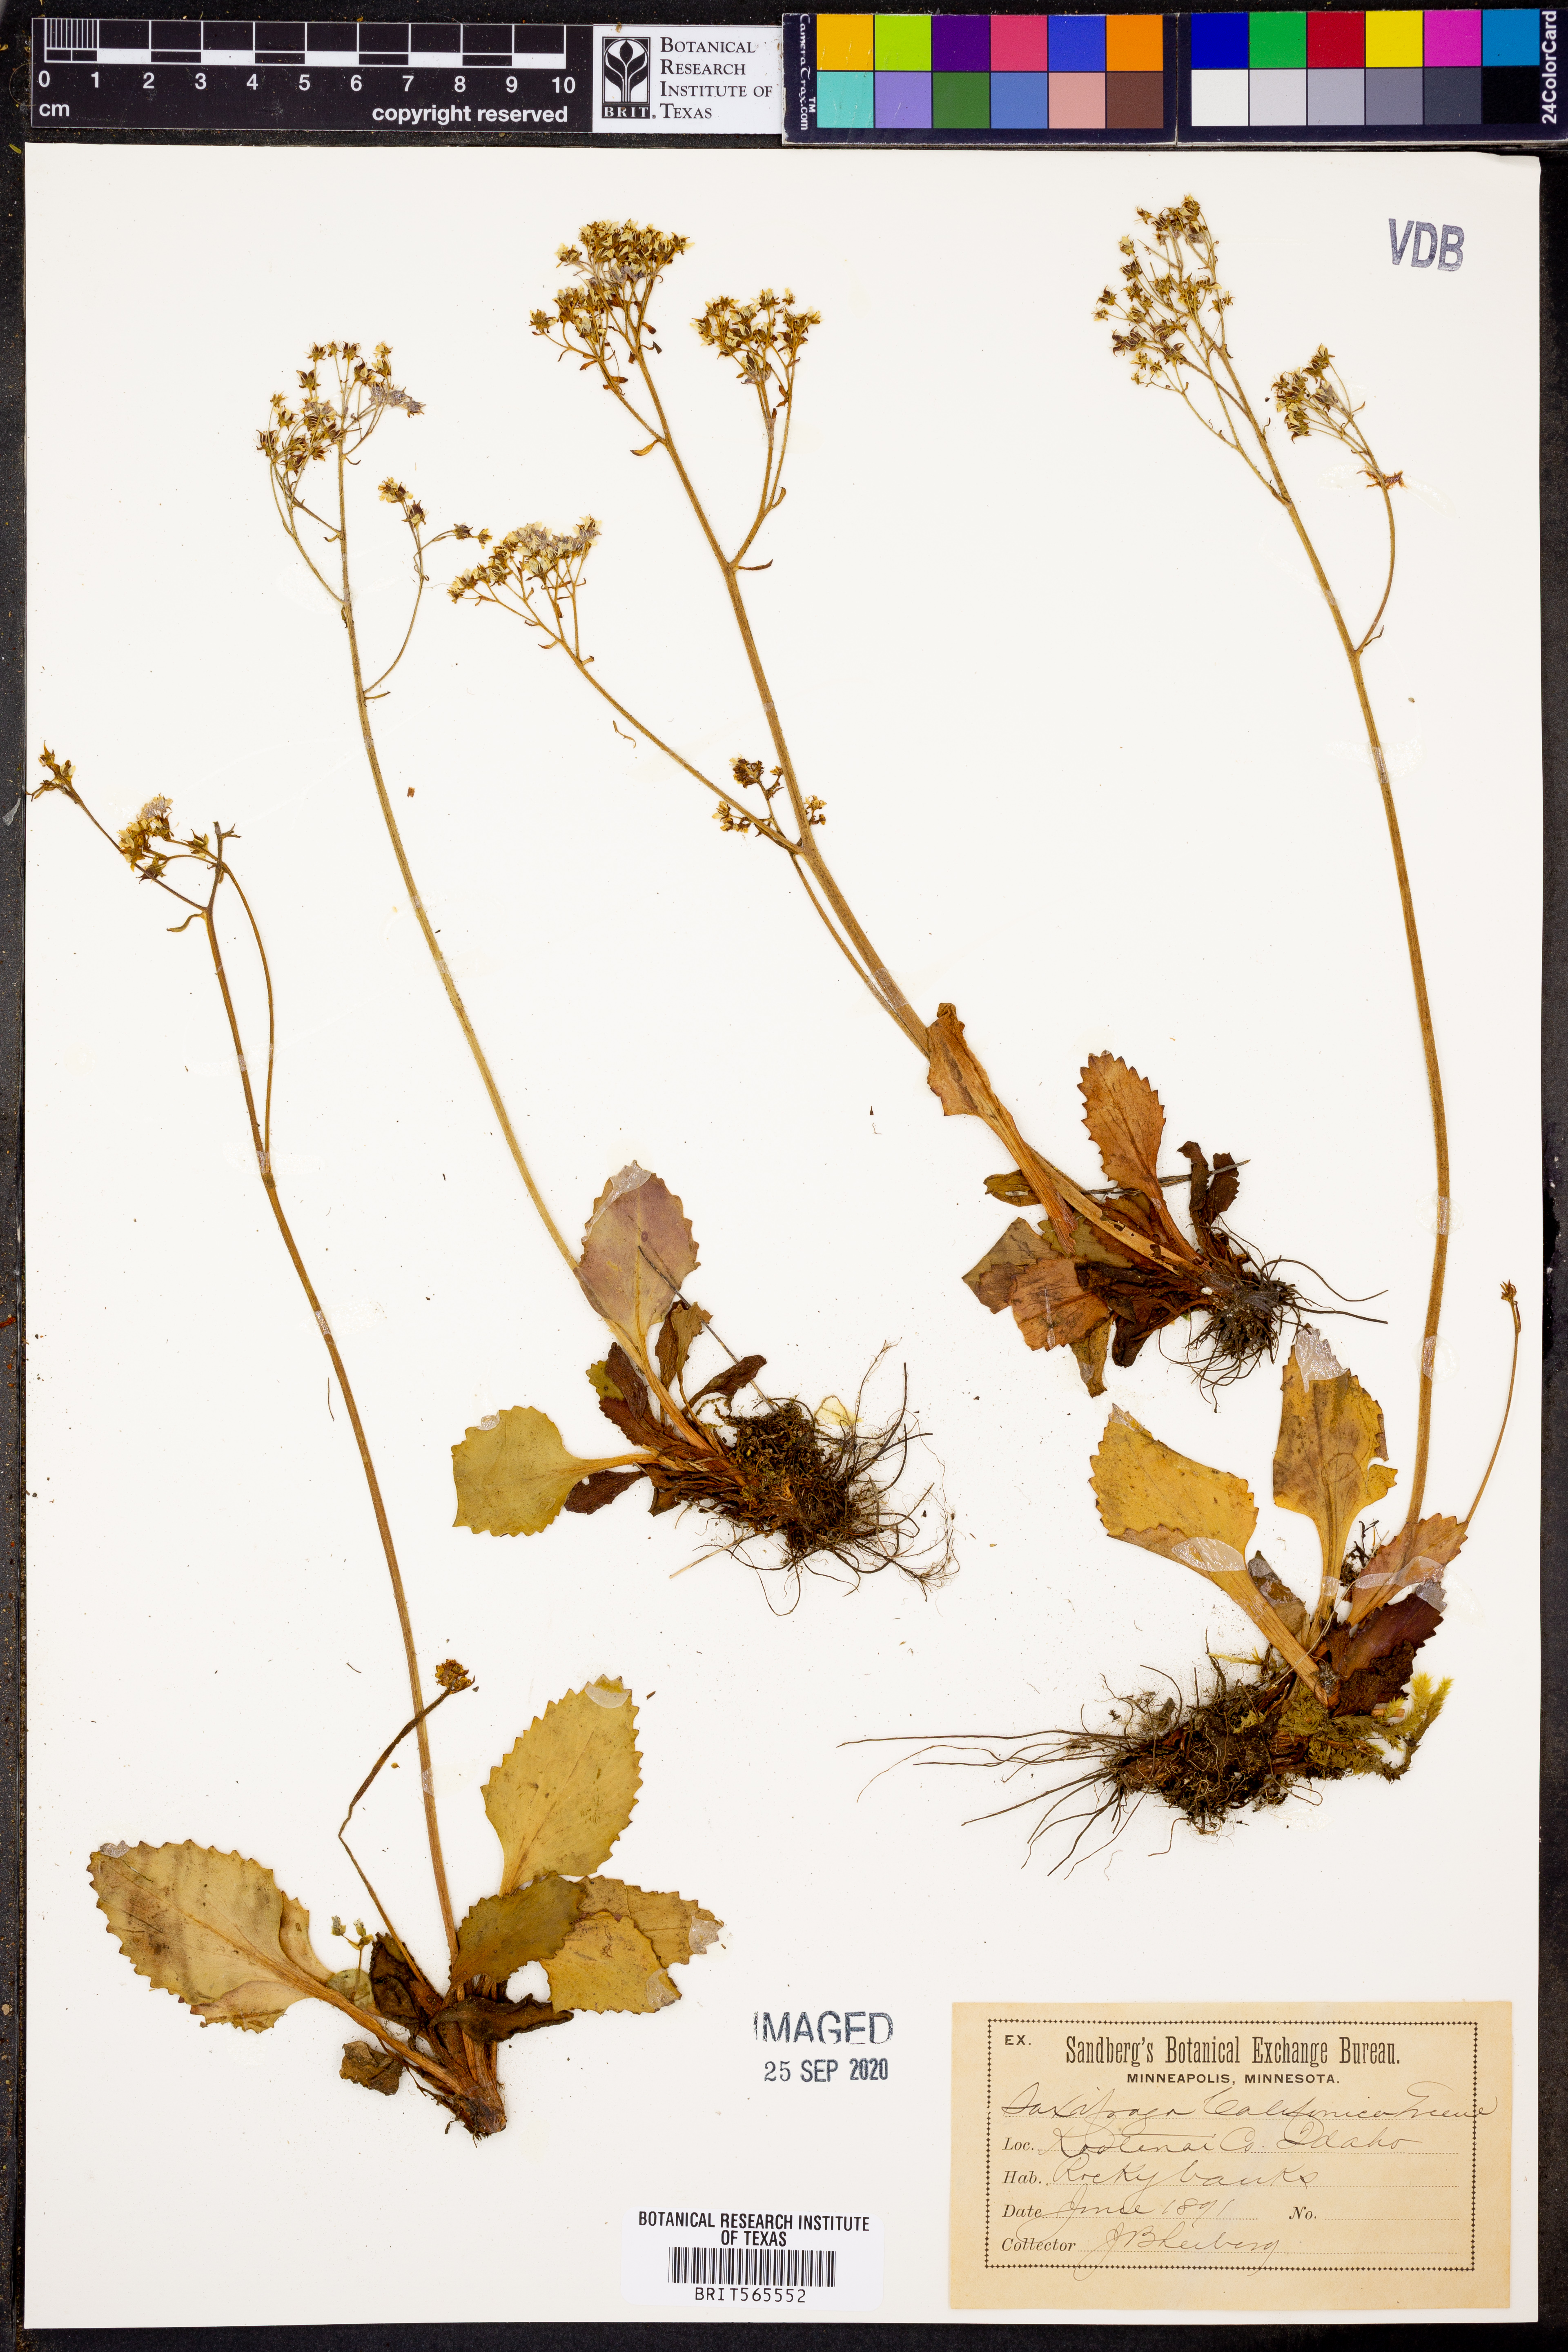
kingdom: Plantae
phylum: Tracheophyta
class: Magnoliopsida
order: Saxifragales
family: Saxifragaceae
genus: Micranthes
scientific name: Micranthes californica
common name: California saxifrage
